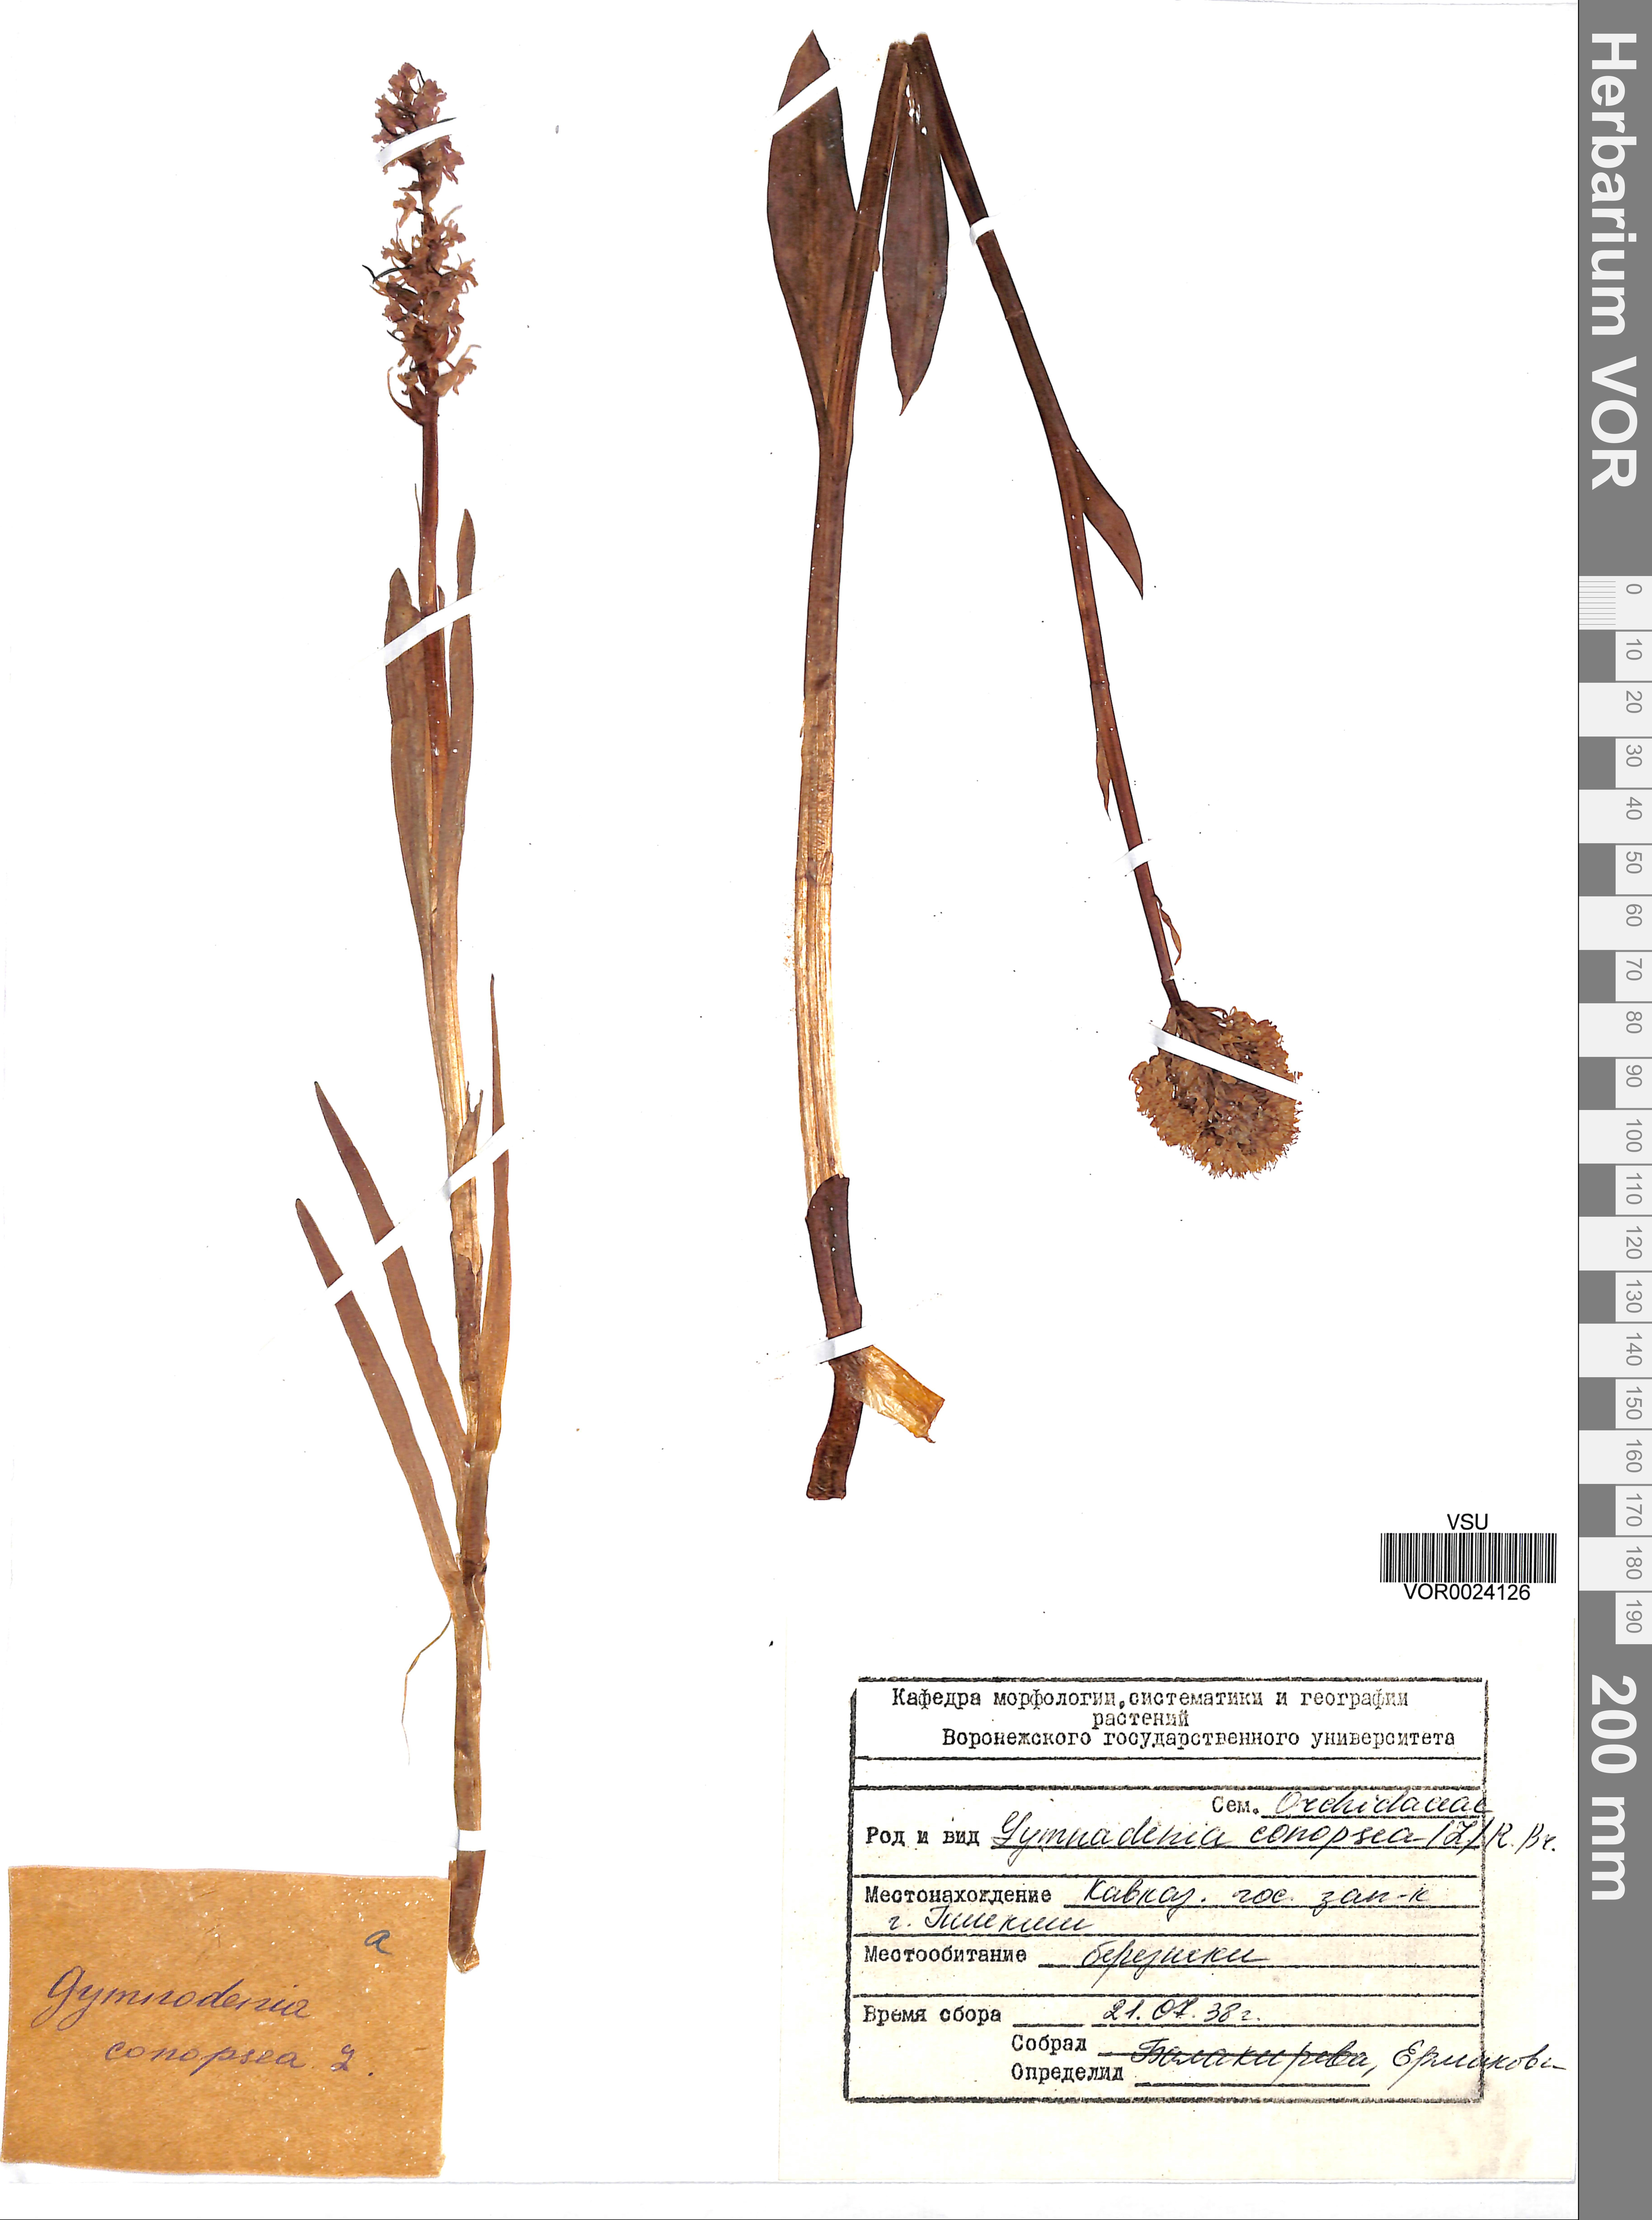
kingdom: Plantae
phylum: Tracheophyta
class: Liliopsida
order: Asparagales
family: Orchidaceae
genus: Gymnadenia
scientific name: Gymnadenia conopsea
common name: Fragrant orchid
